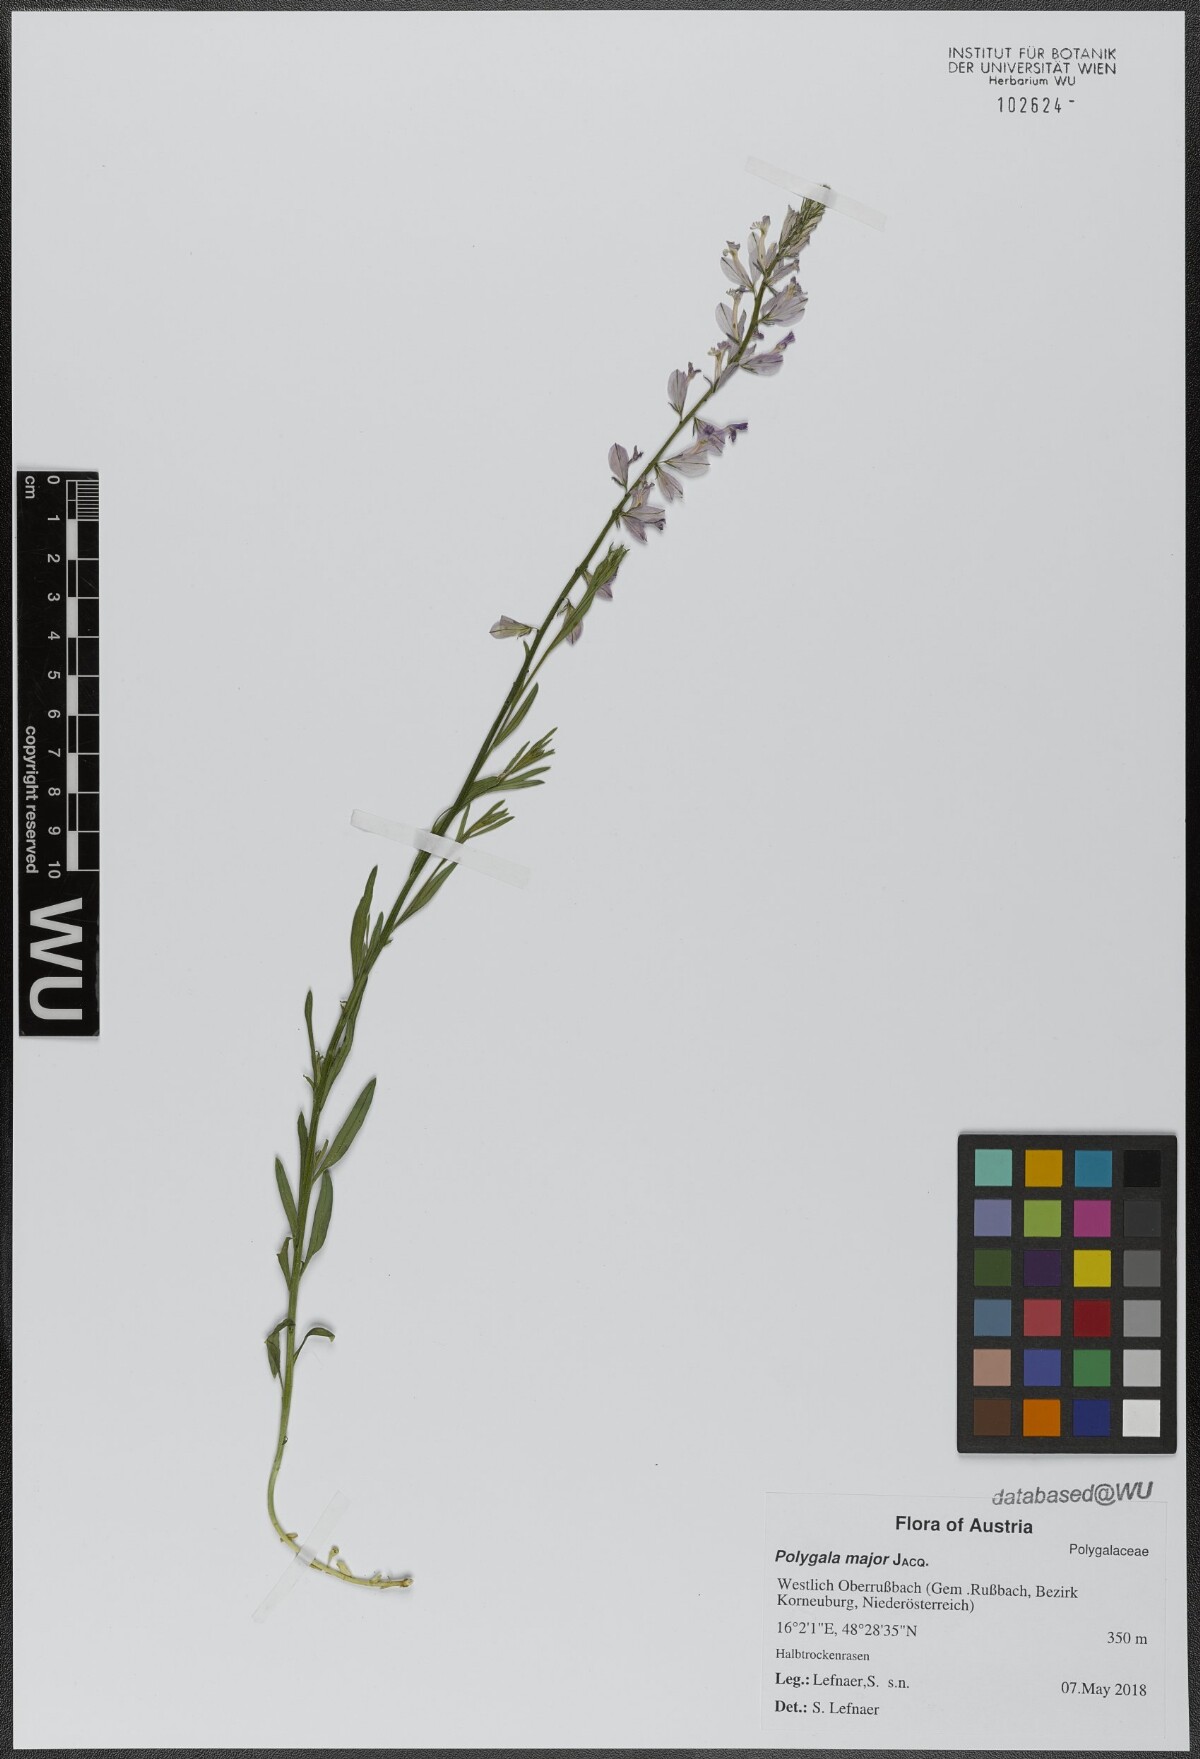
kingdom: Plantae
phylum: Tracheophyta
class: Magnoliopsida
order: Fabales
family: Polygalaceae
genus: Polygala
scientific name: Polygala major
